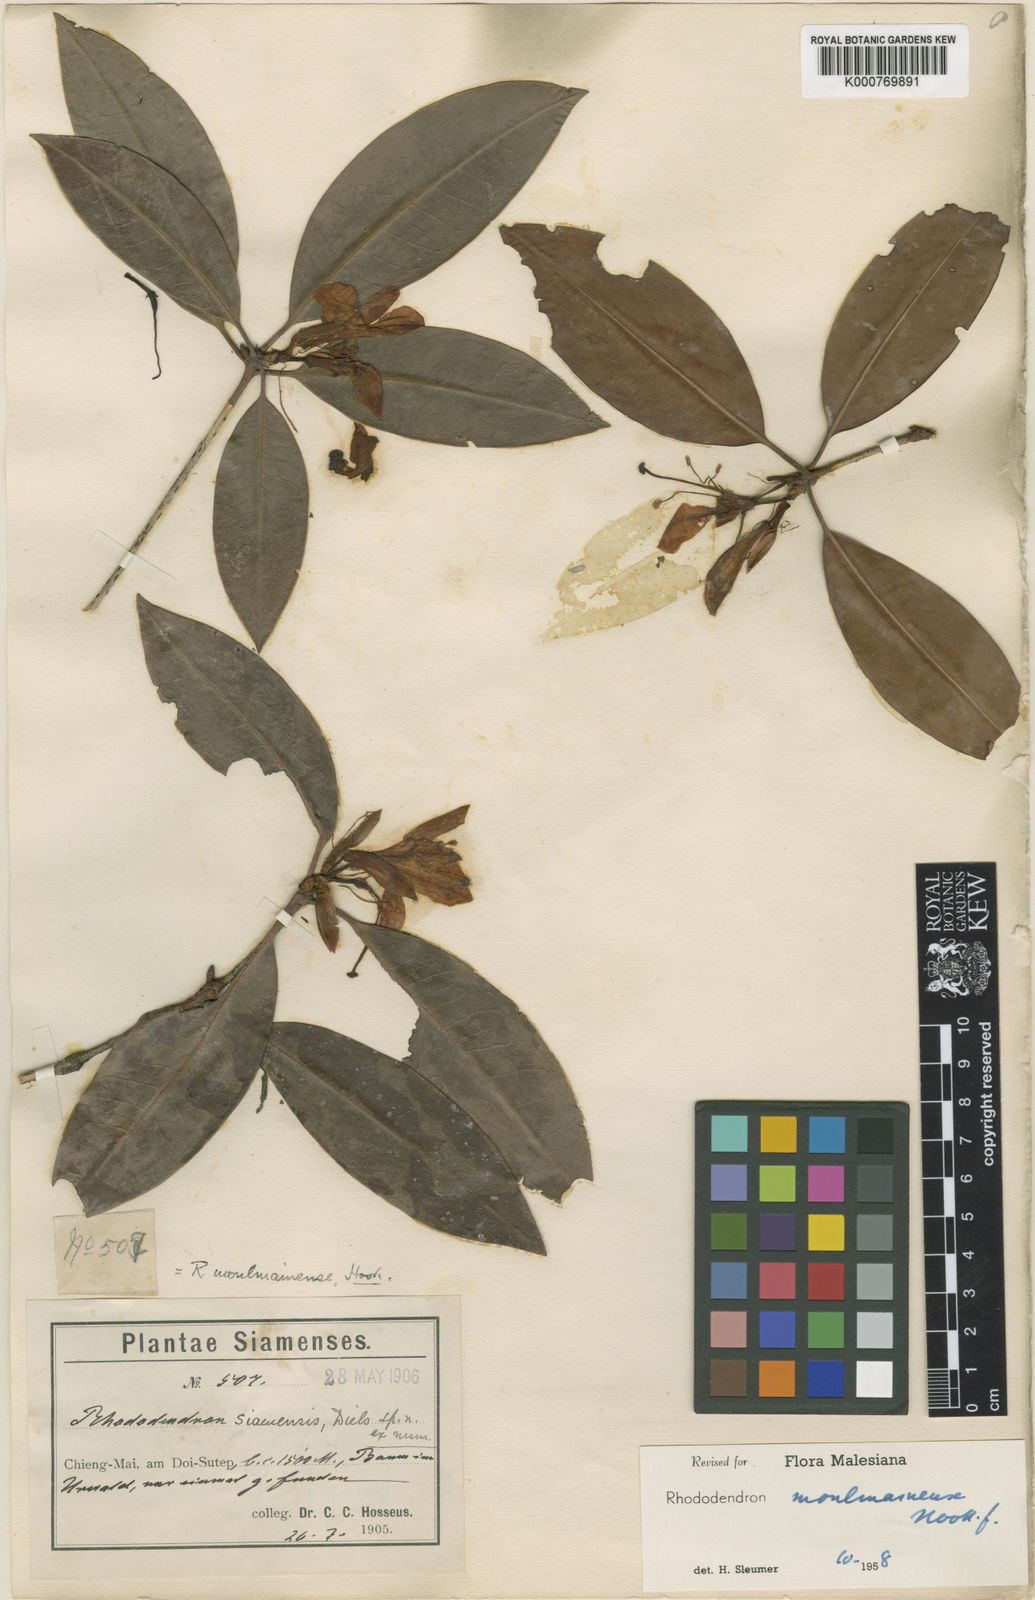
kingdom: Plantae
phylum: Tracheophyta
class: Magnoliopsida
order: Ericales
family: Ericaceae
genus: Rhododendron
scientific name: Rhododendron moulmainense
